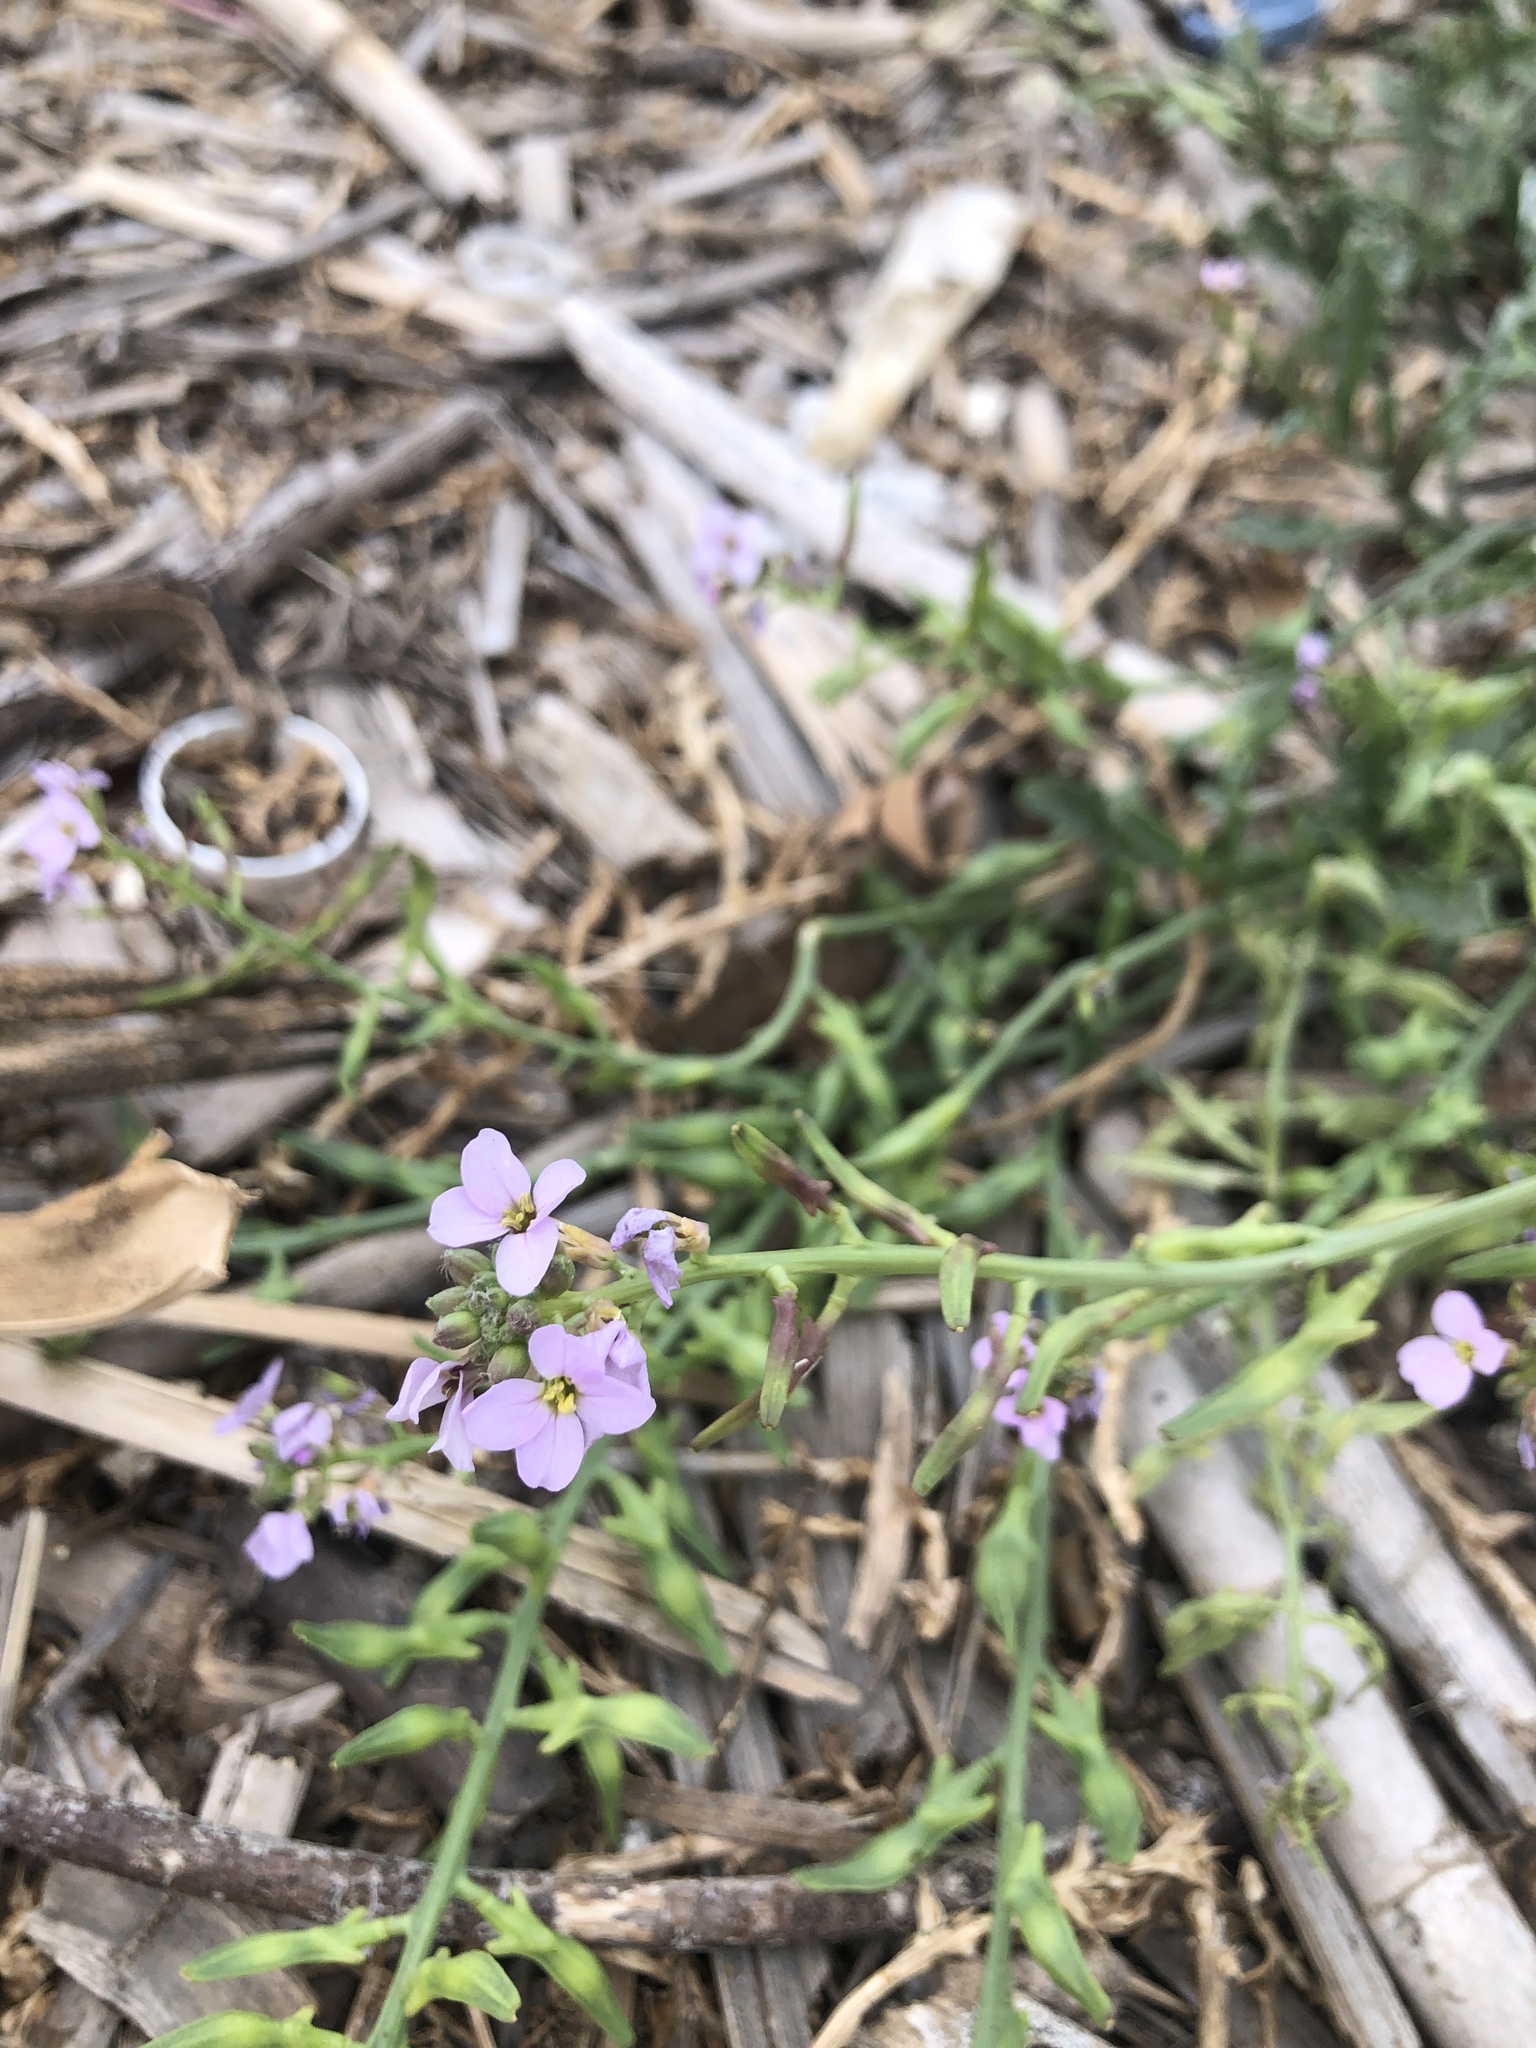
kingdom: Plantae
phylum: Tracheophyta
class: Magnoliopsida
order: Brassicales
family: Brassicaceae
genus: Cakile
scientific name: Cakile maritima
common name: Sea rocket
